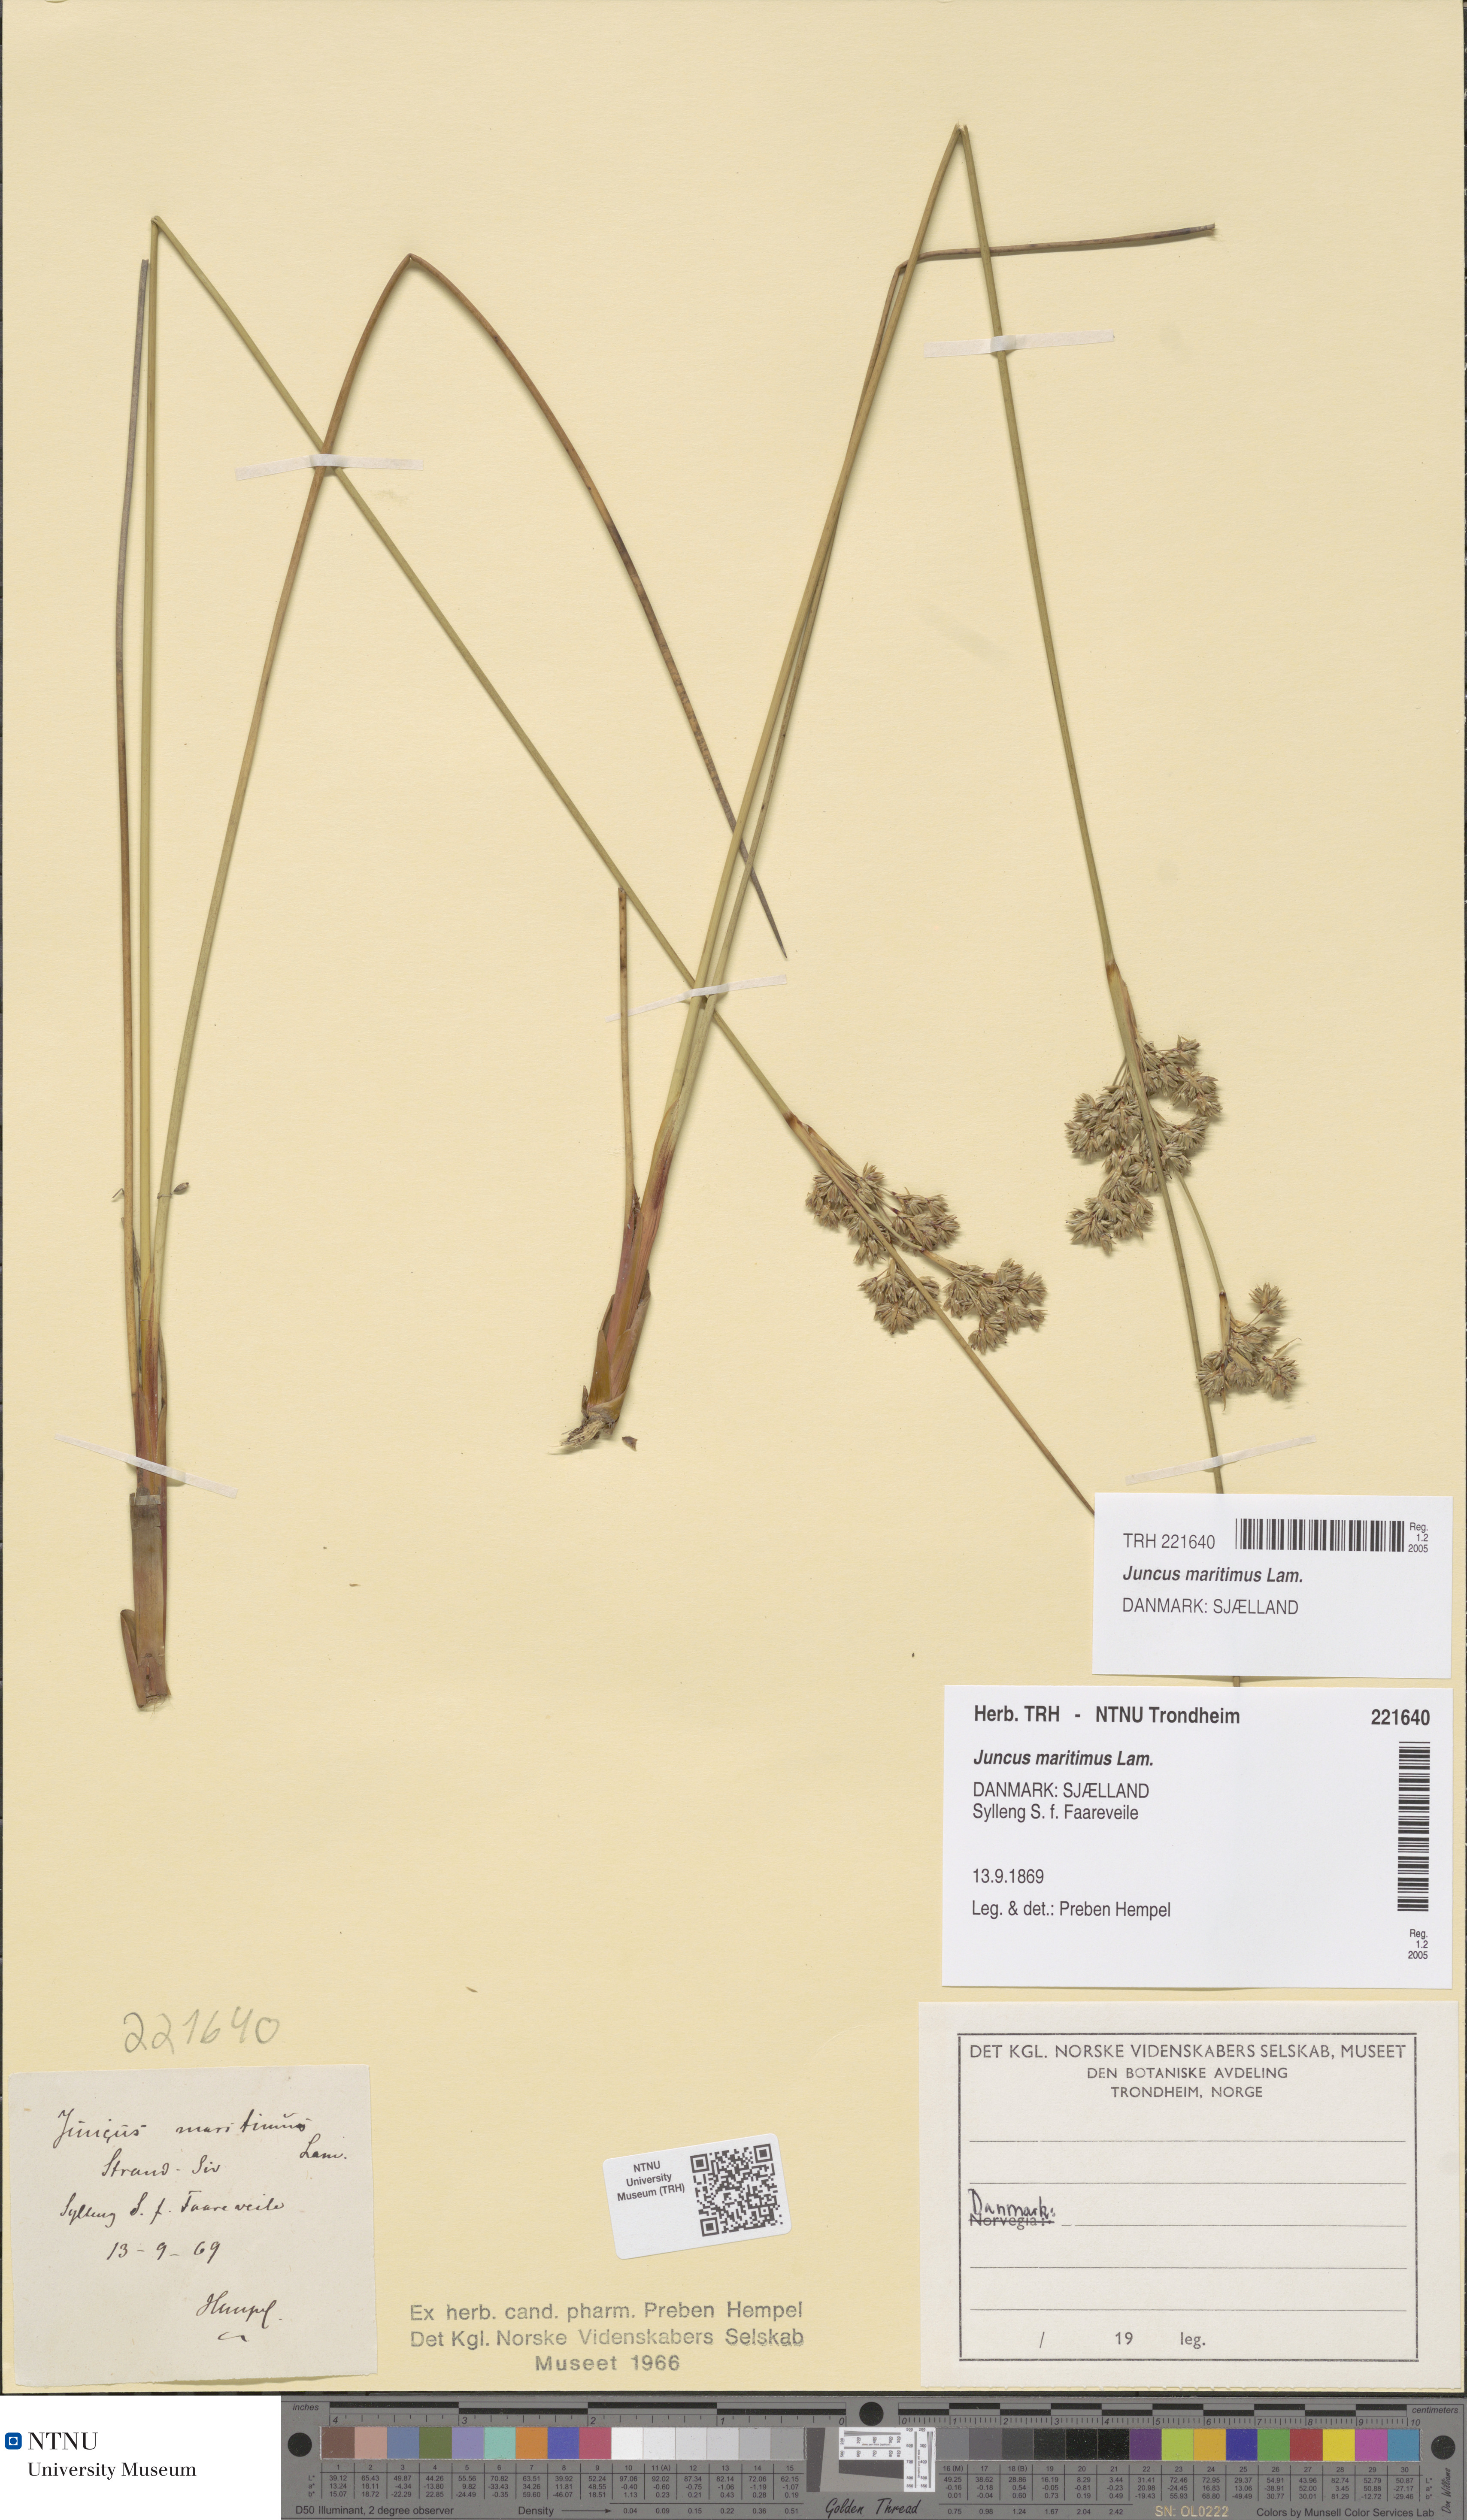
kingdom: Plantae
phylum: Tracheophyta
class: Liliopsida
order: Poales
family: Juncaceae
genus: Juncus
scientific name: Juncus maritimus
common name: Sea rush
